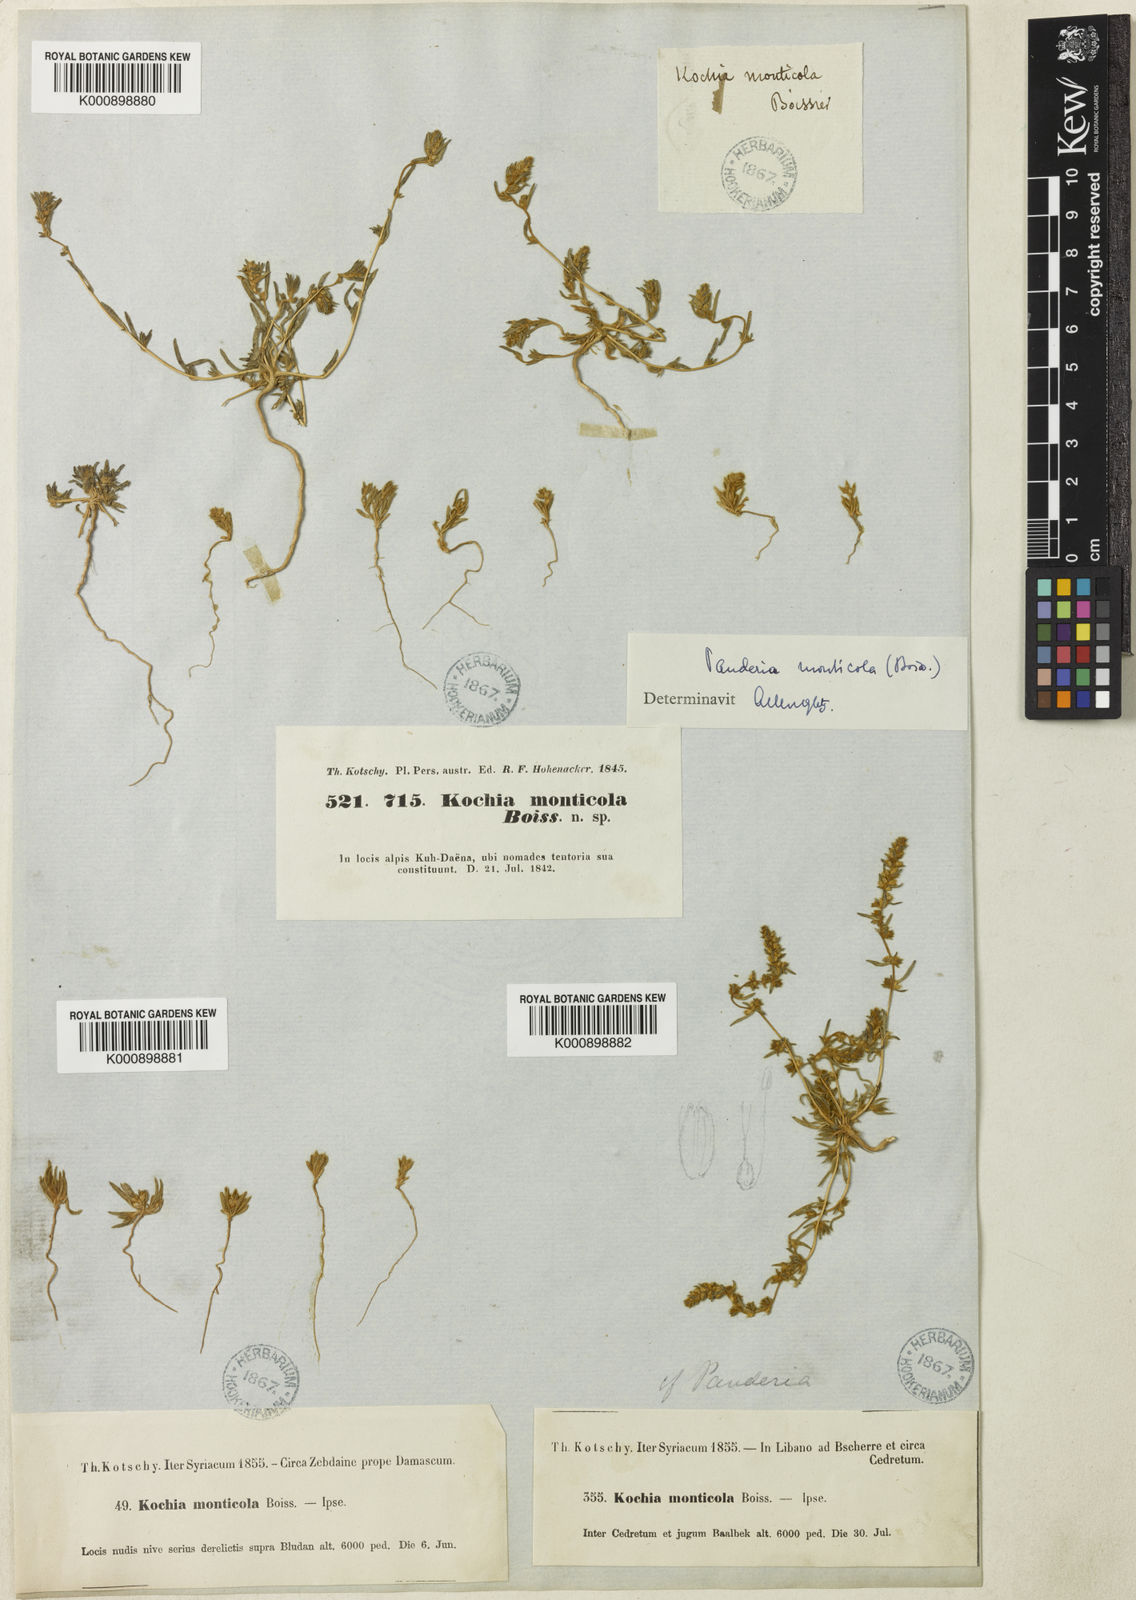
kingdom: Plantae
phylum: Tracheophyta
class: Magnoliopsida
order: Caryophyllales
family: Amaranthaceae
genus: Bassia
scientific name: Bassia
